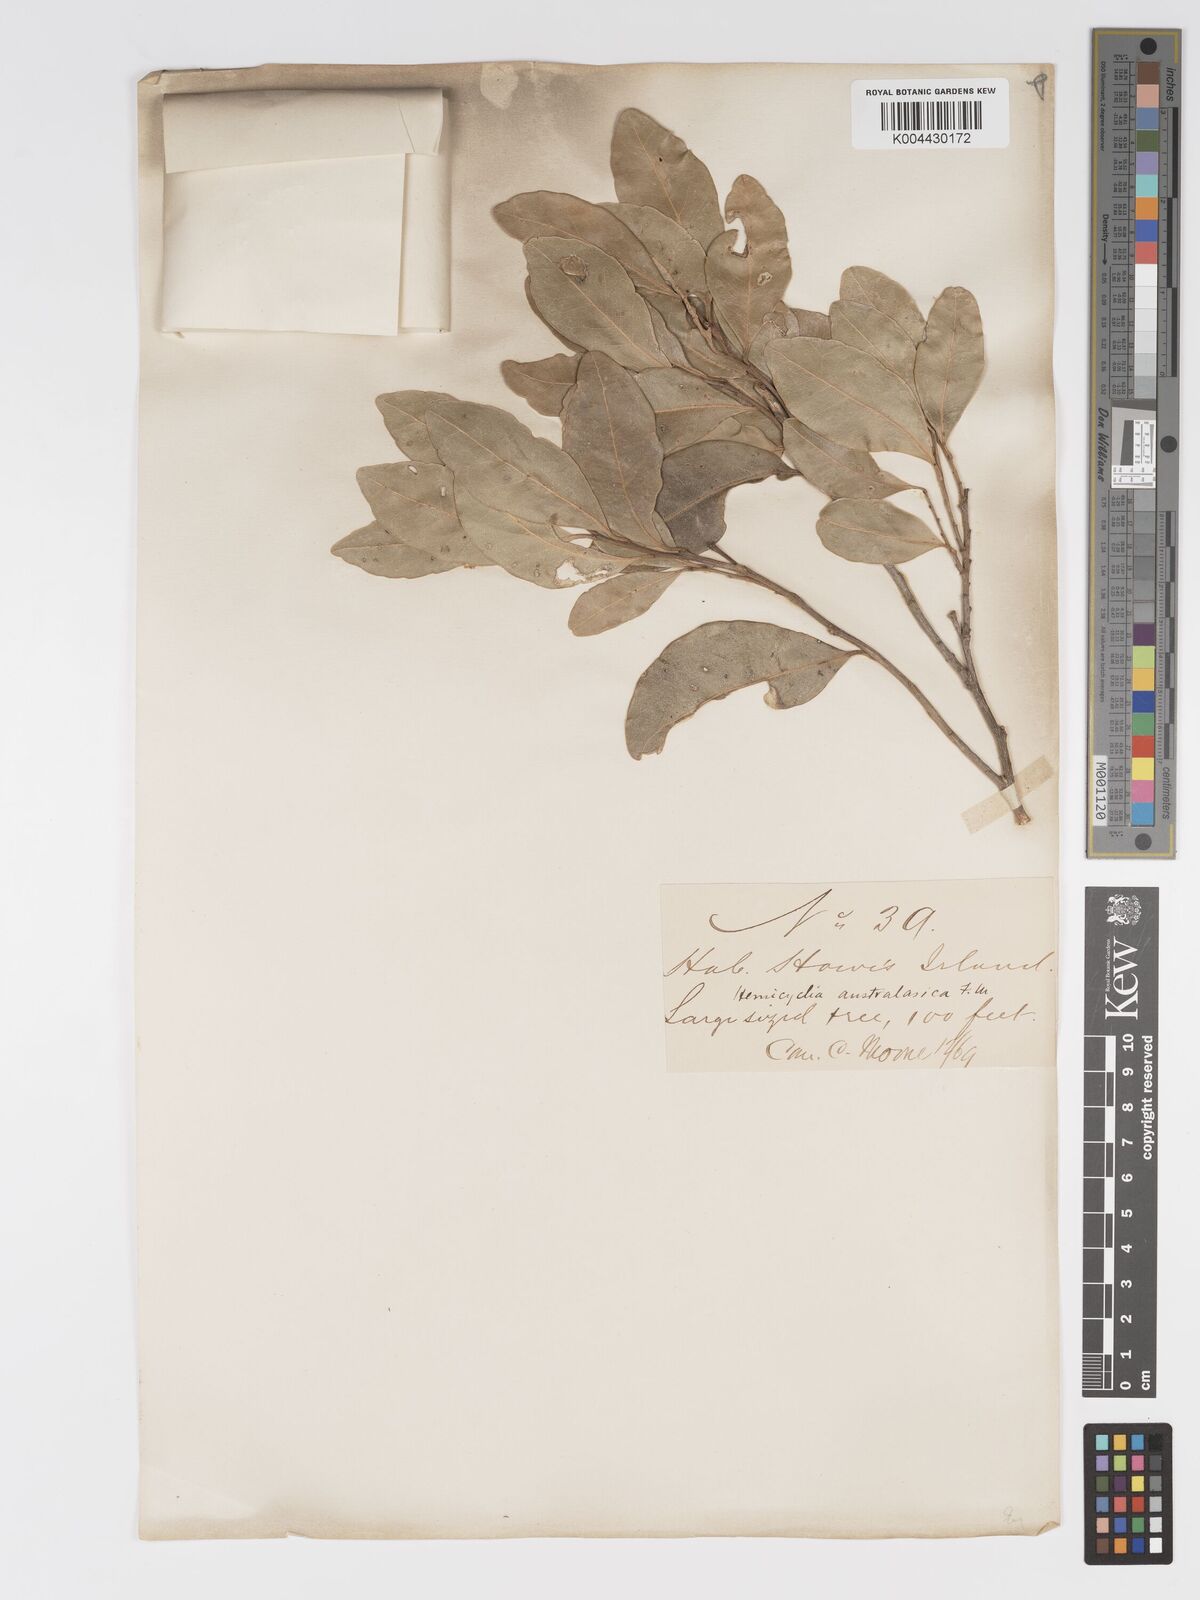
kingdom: Plantae
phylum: Tracheophyta
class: Magnoliopsida
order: Malpighiales
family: Putranjivaceae
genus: Drypetes
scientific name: Drypetes deplanchei
